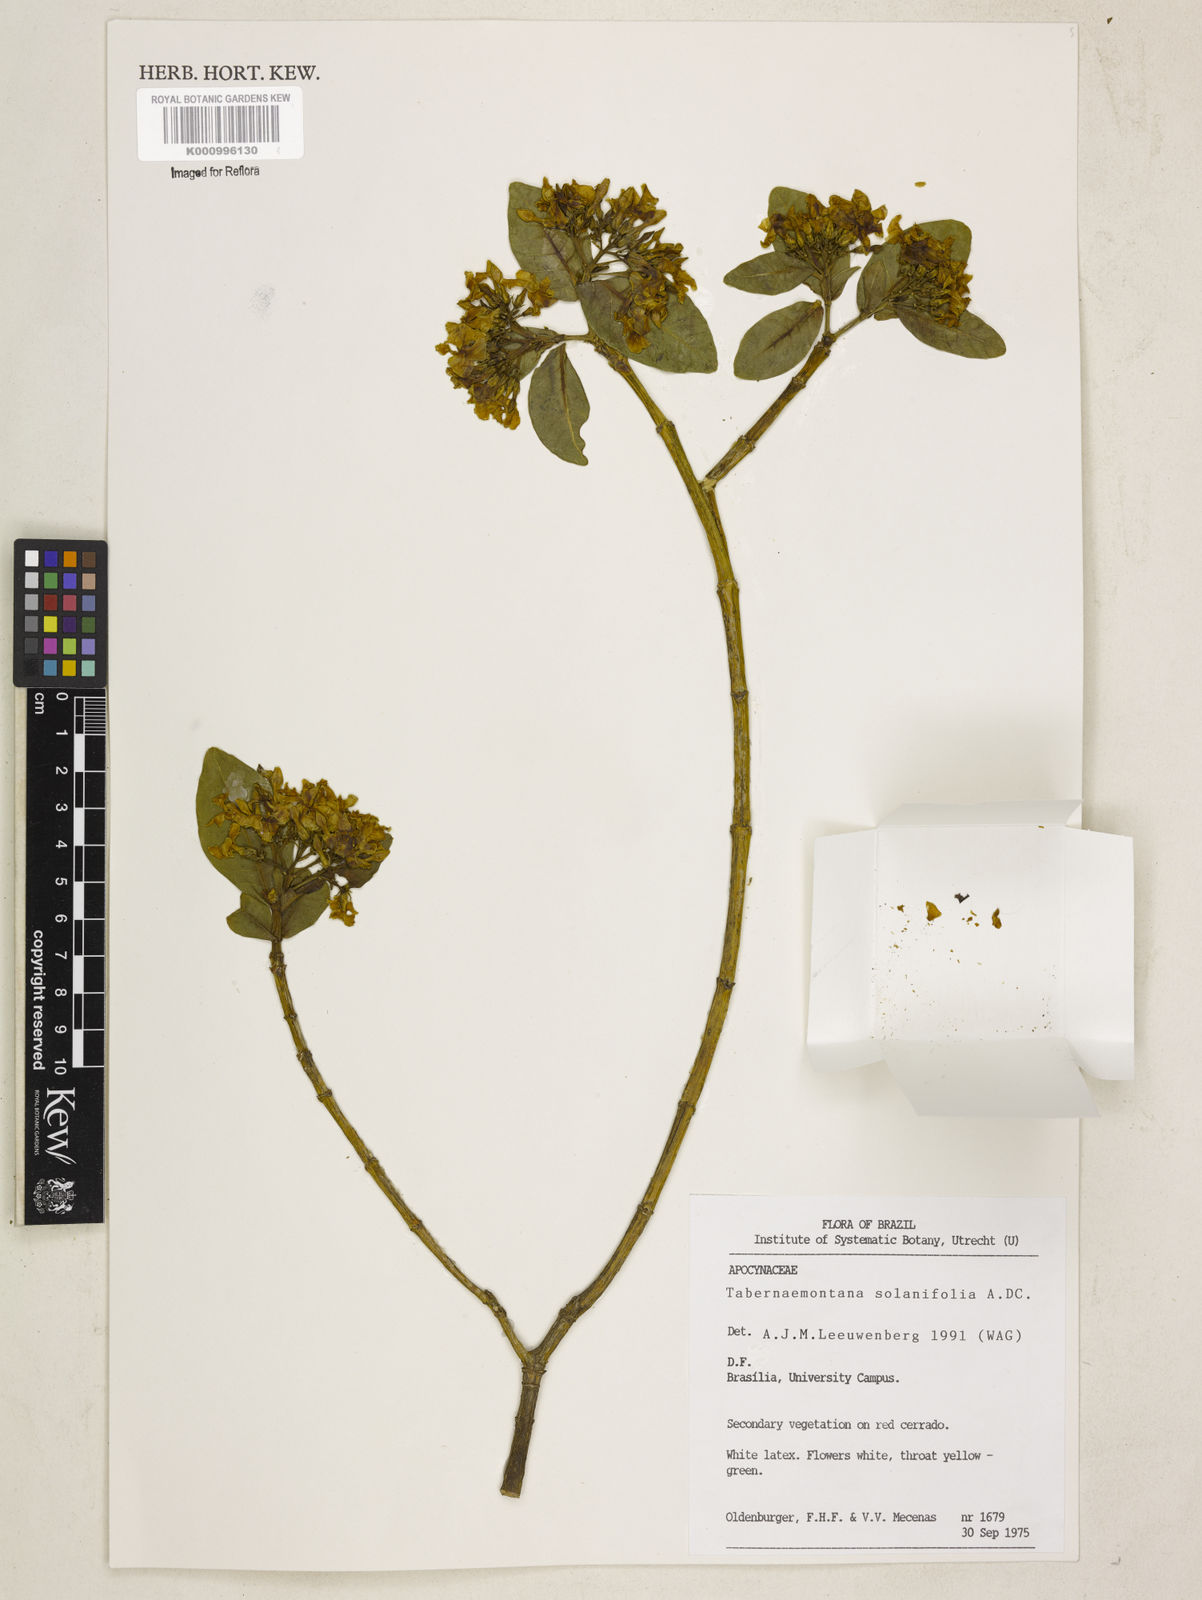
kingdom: Plantae
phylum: Tracheophyta
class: Magnoliopsida
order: Gentianales
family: Apocynaceae
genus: Tabernaemontana
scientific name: Tabernaemontana solanifolia
